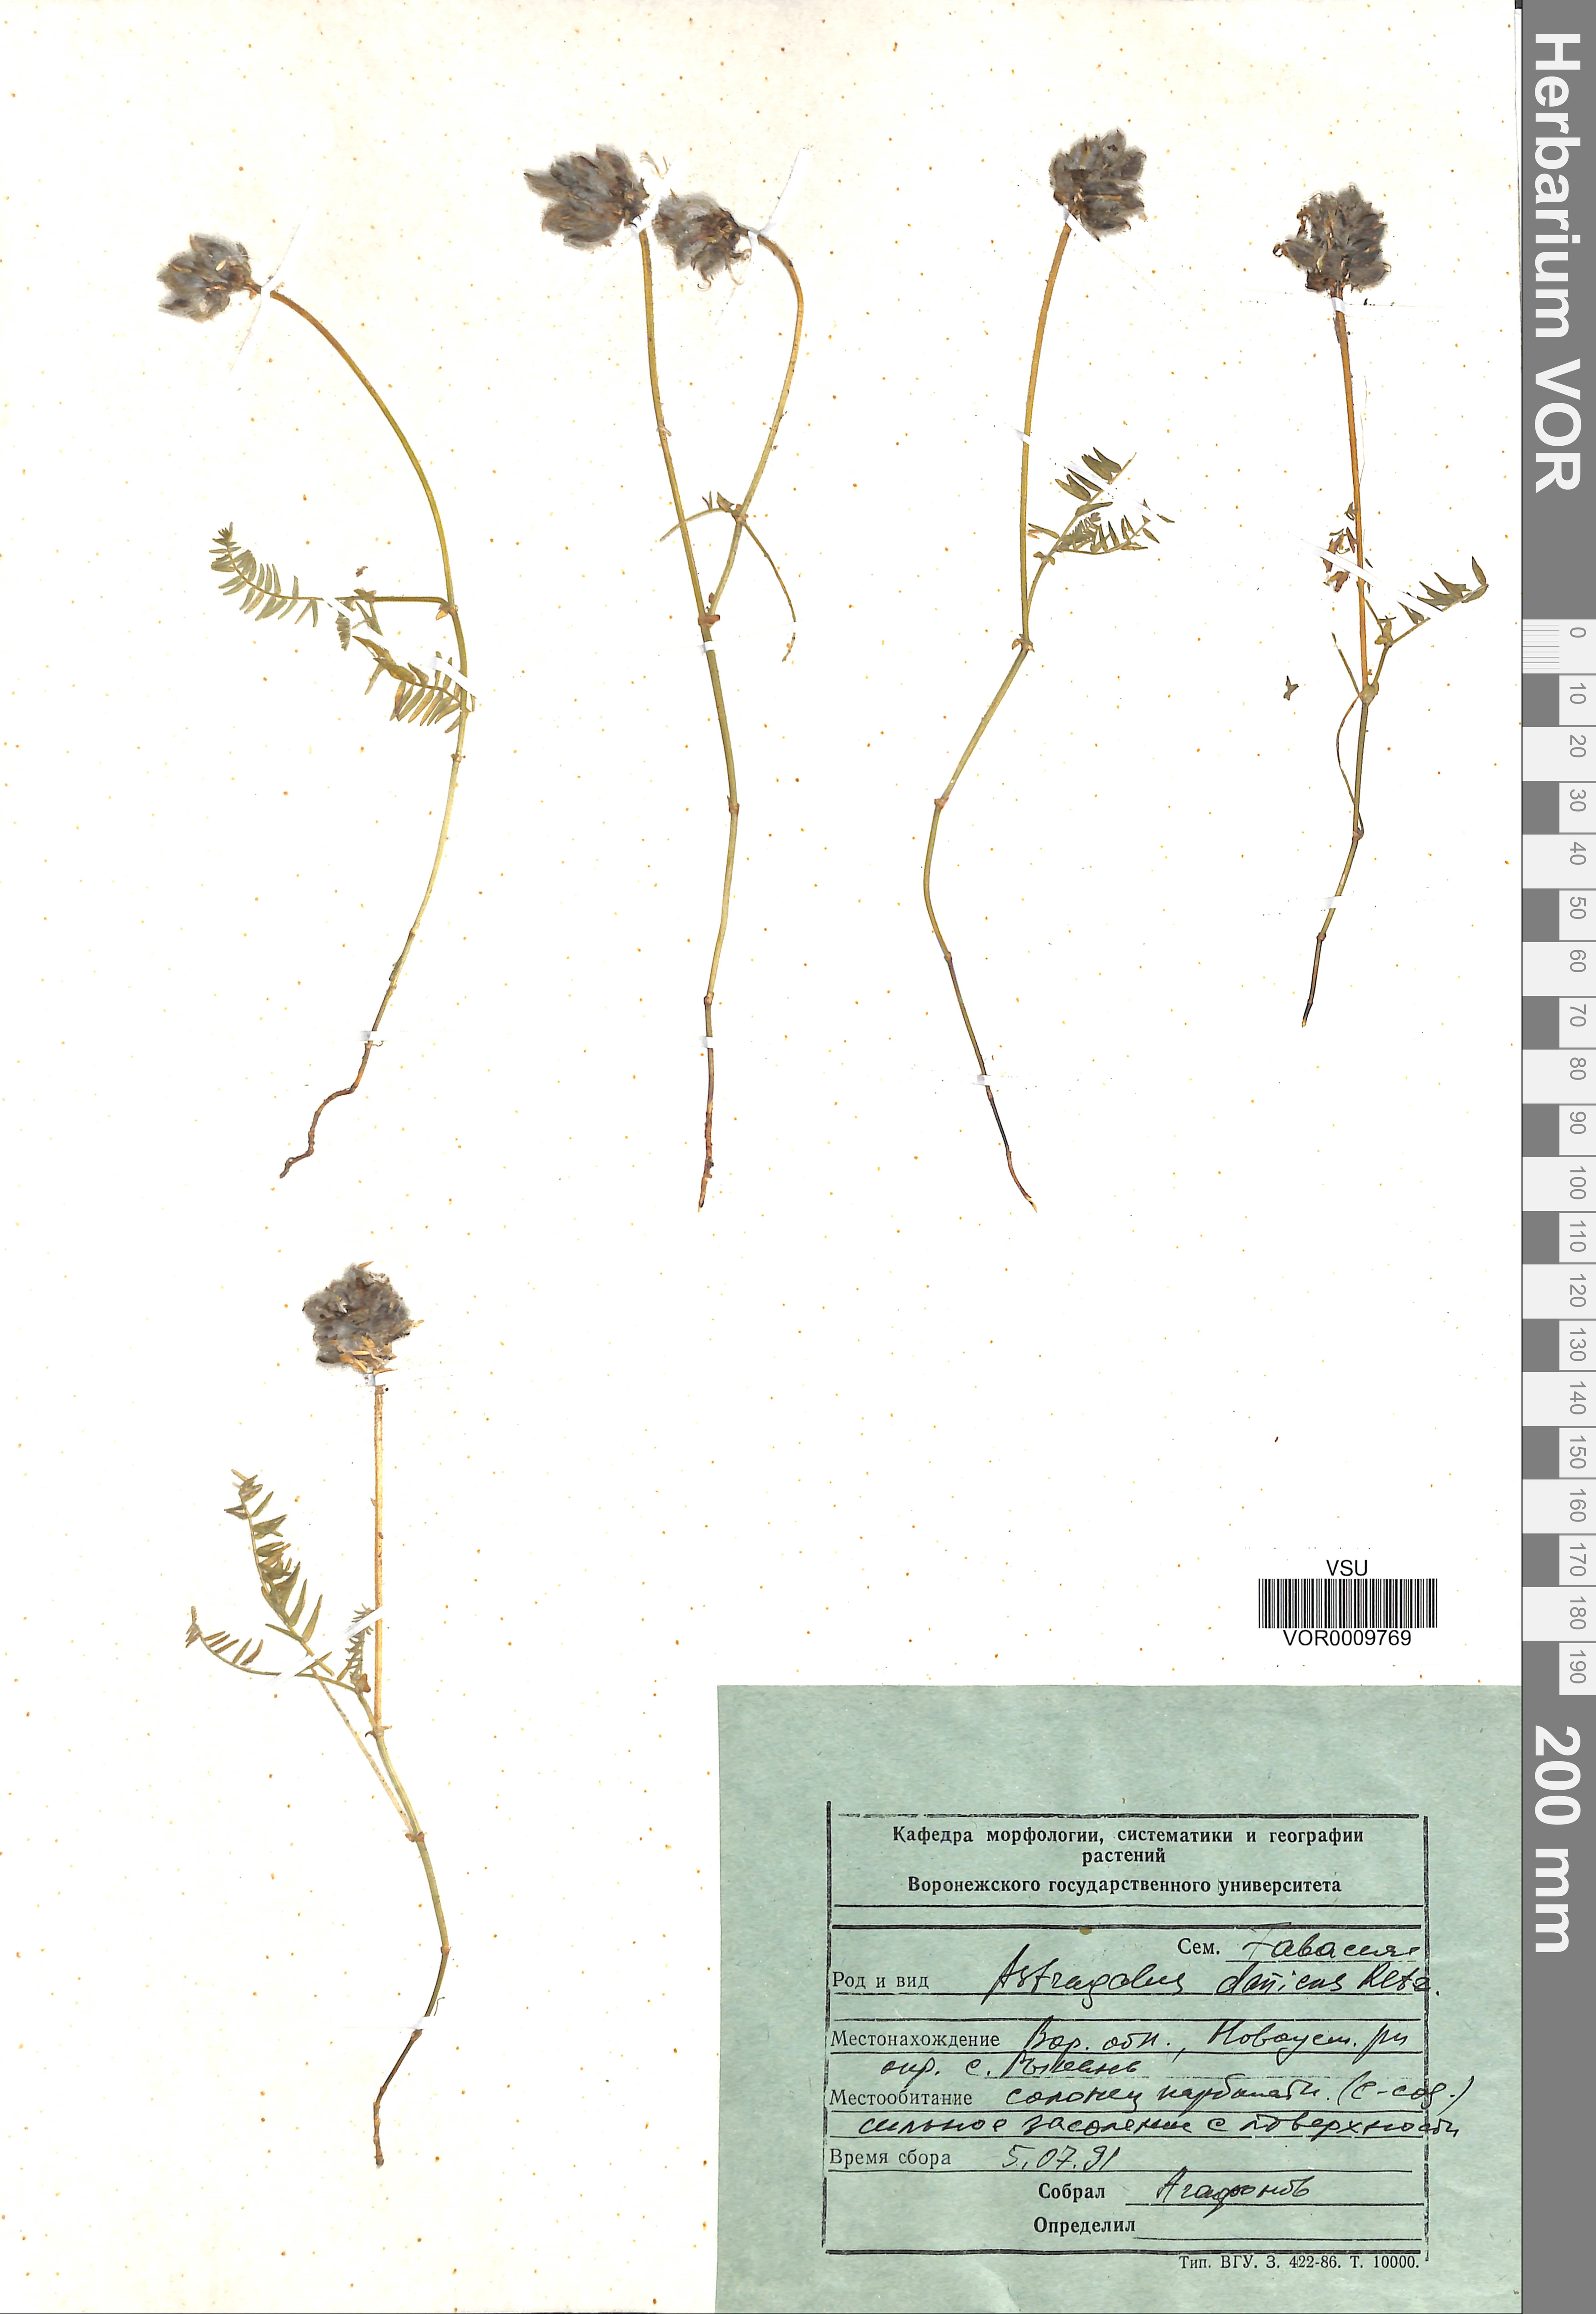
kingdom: Plantae
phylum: Tracheophyta
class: Magnoliopsida
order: Fabales
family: Fabaceae
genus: Astragalus
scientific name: Astragalus danicus
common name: Purple milk-vetch
